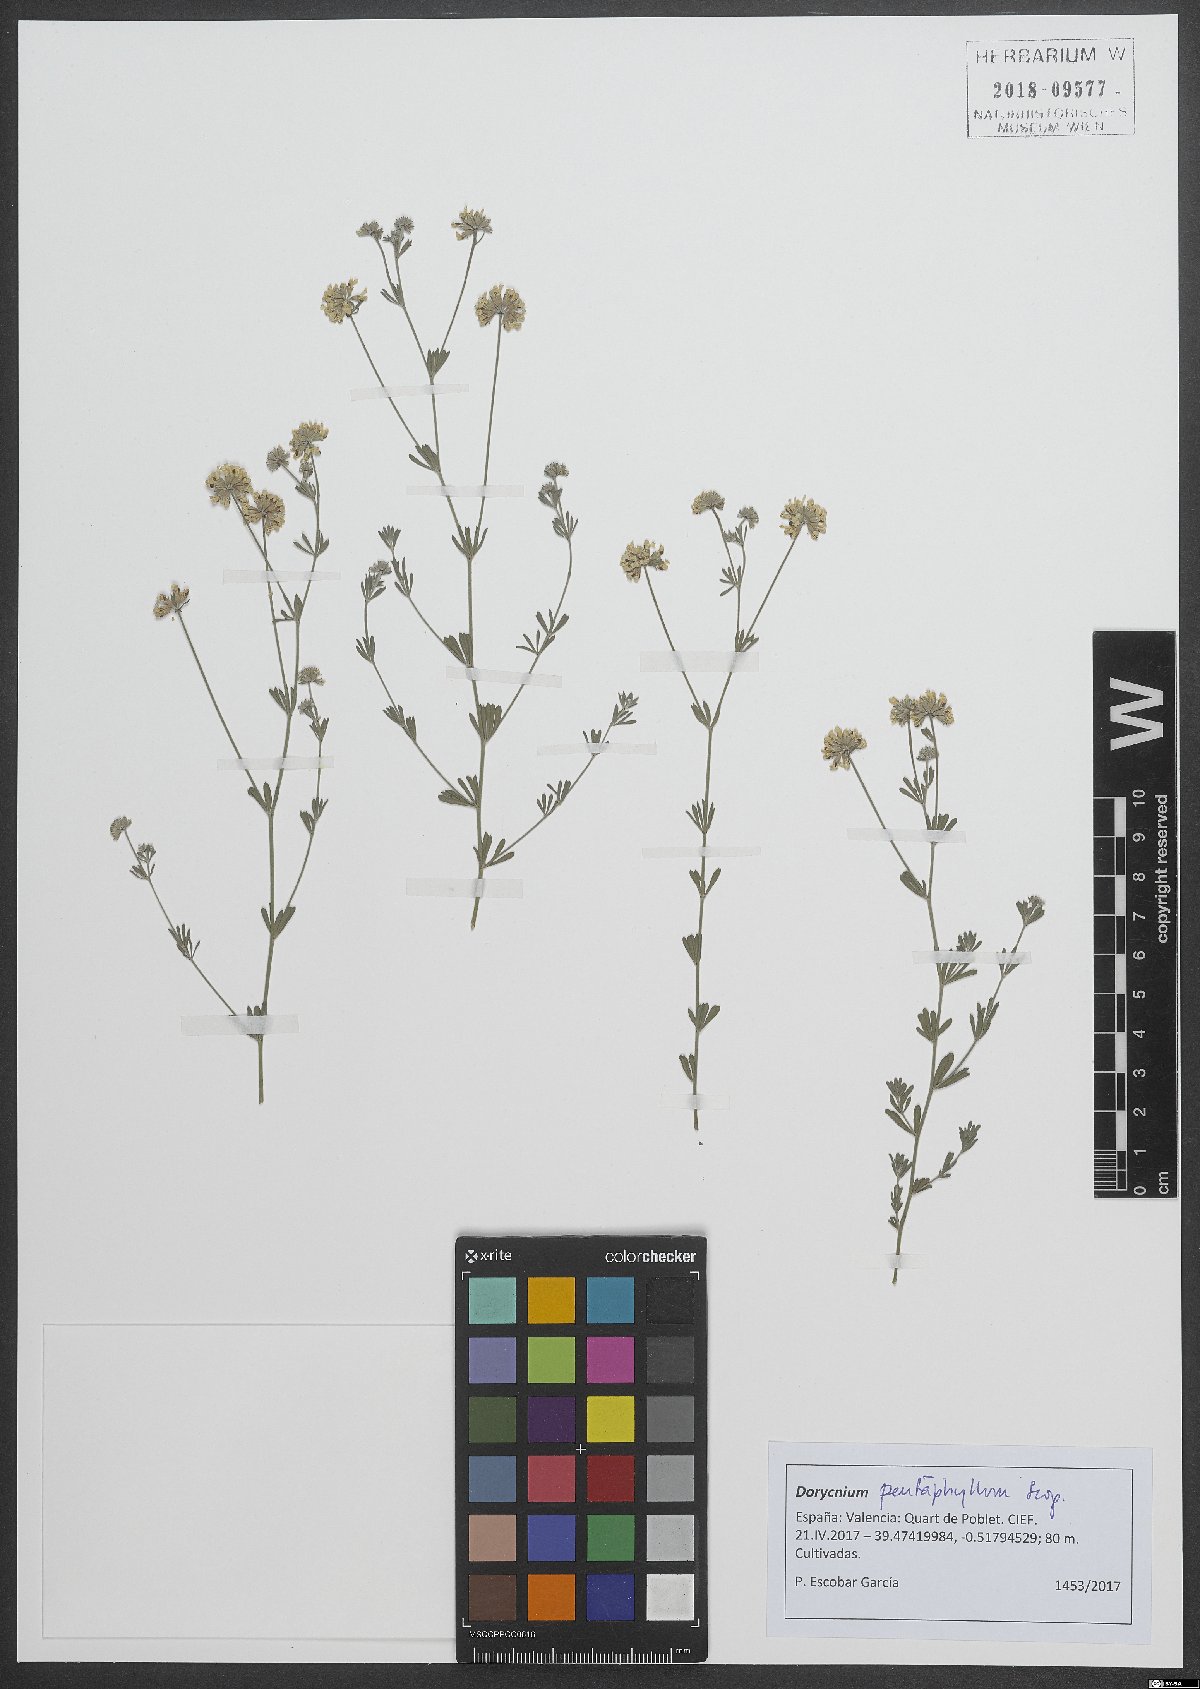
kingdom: Plantae
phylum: Tracheophyta
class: Magnoliopsida
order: Fabales
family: Fabaceae
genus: Lotus
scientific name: Lotus dorycnium
